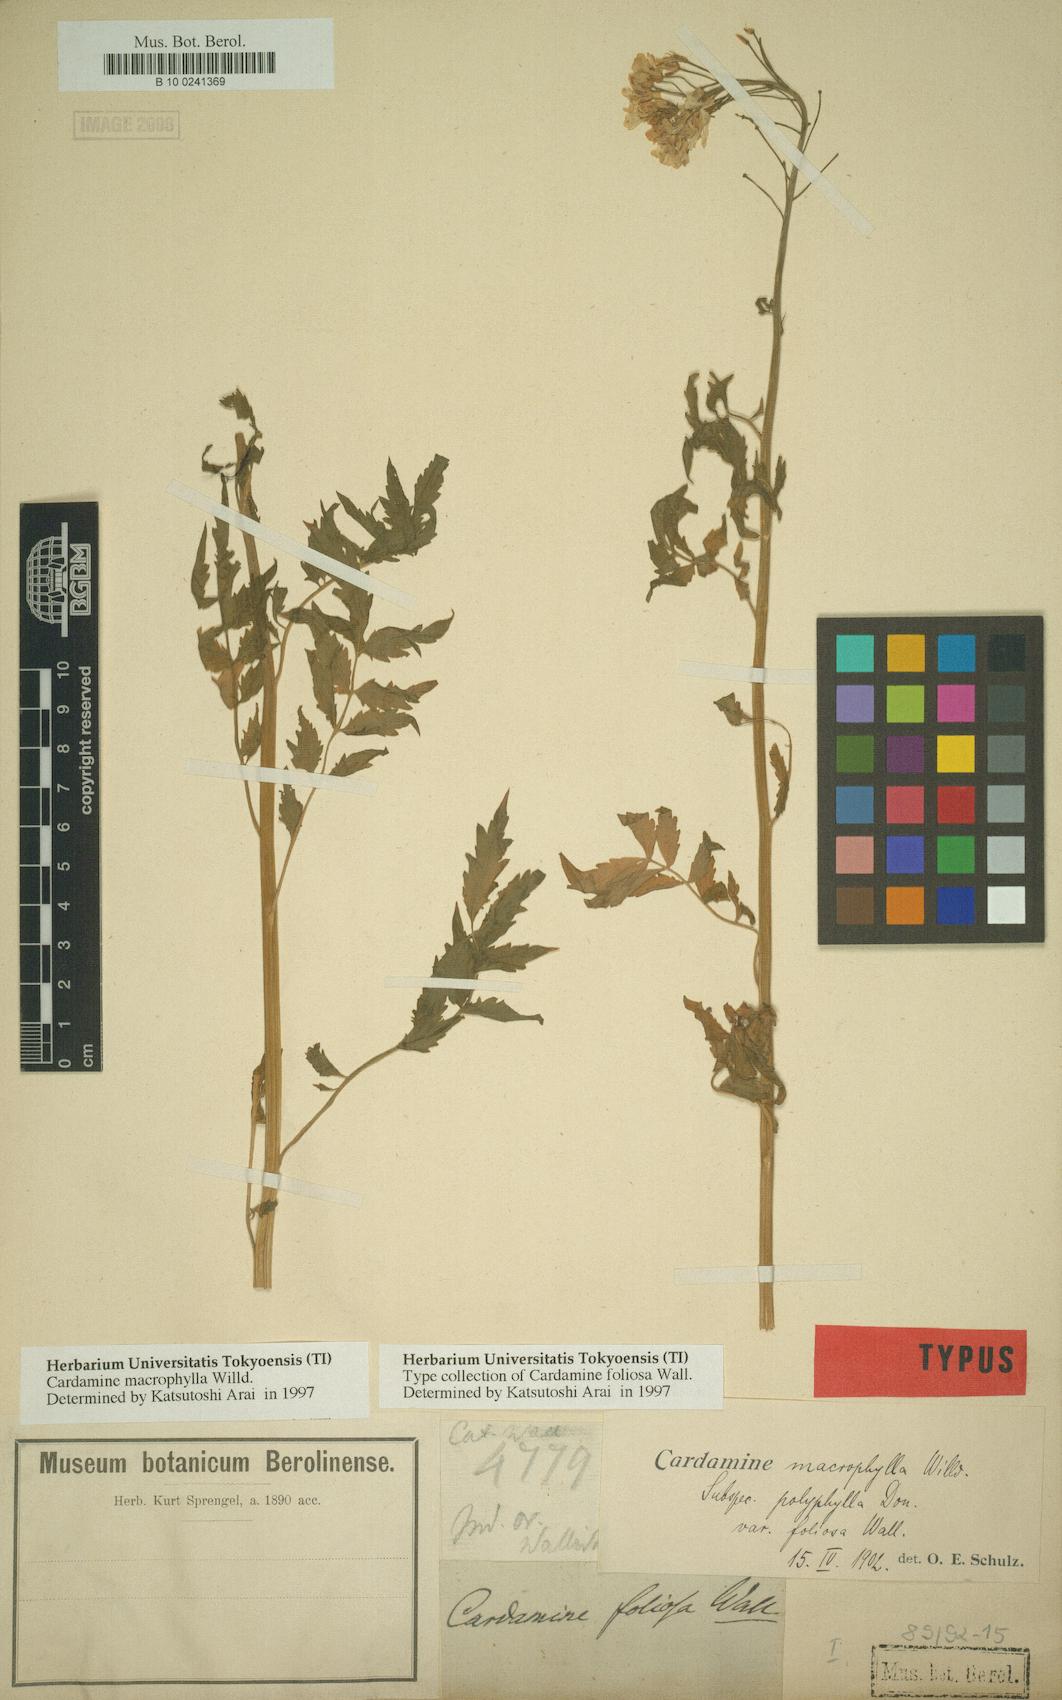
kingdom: Plantae
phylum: Tracheophyta
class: Magnoliopsida
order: Brassicales
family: Brassicaceae
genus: Cardamine
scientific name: Cardamine macrophylla
